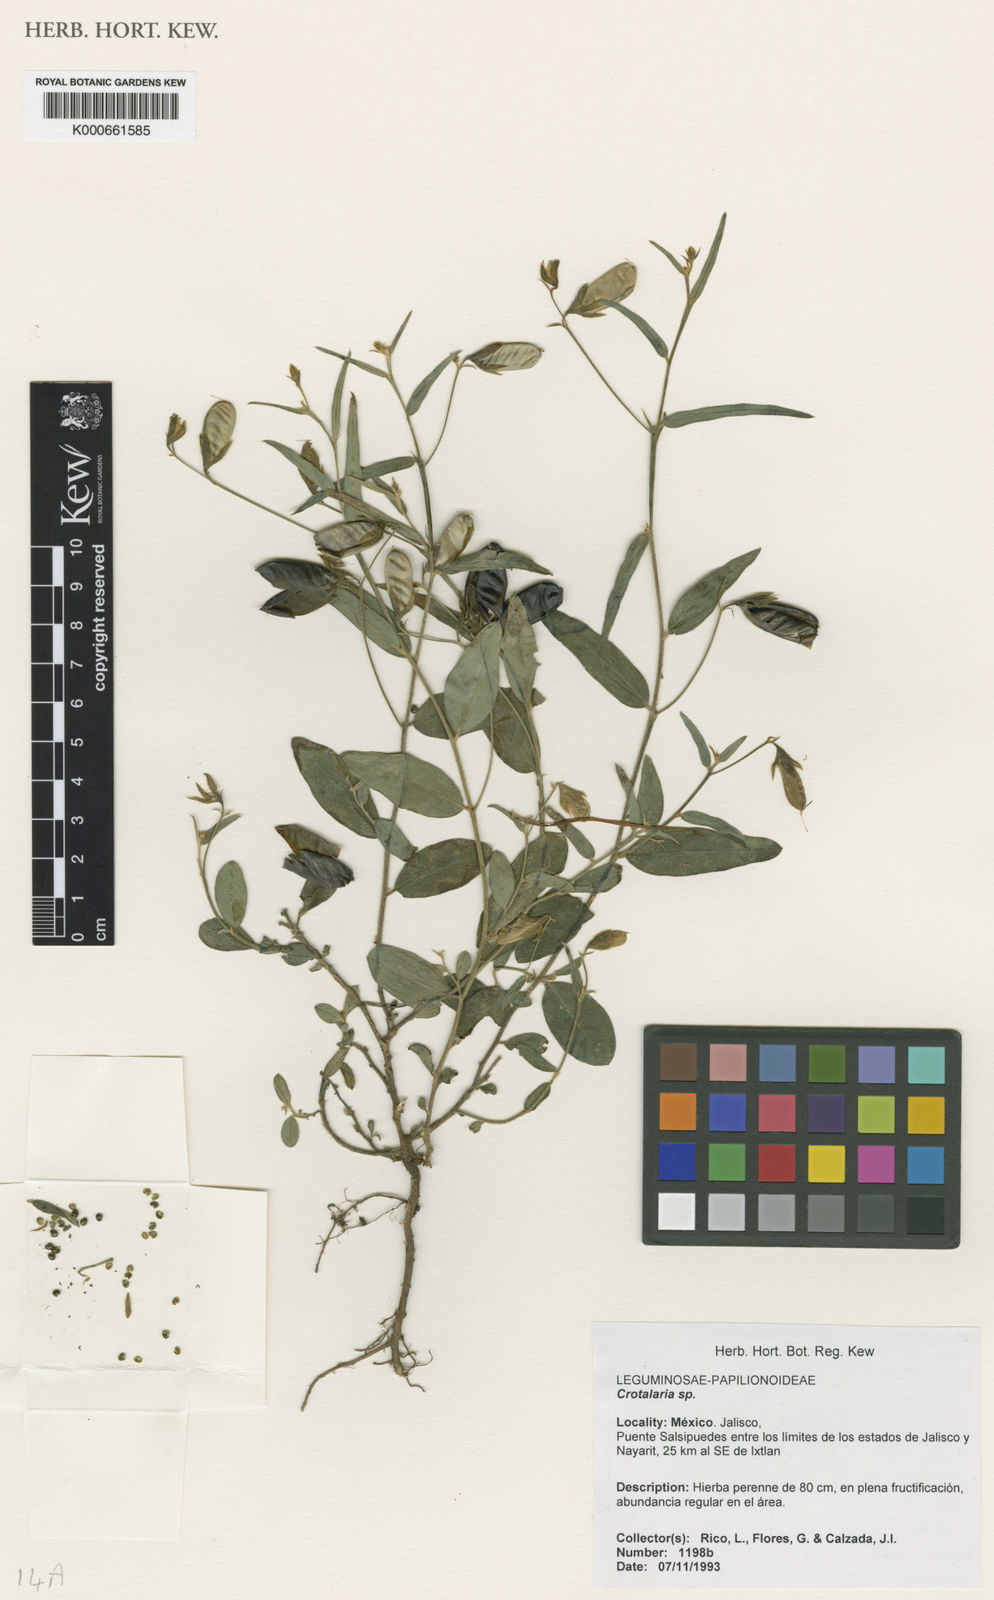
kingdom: Plantae
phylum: Tracheophyta
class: Magnoliopsida
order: Fabales
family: Fabaceae
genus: Crotalaria
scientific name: Crotalaria
